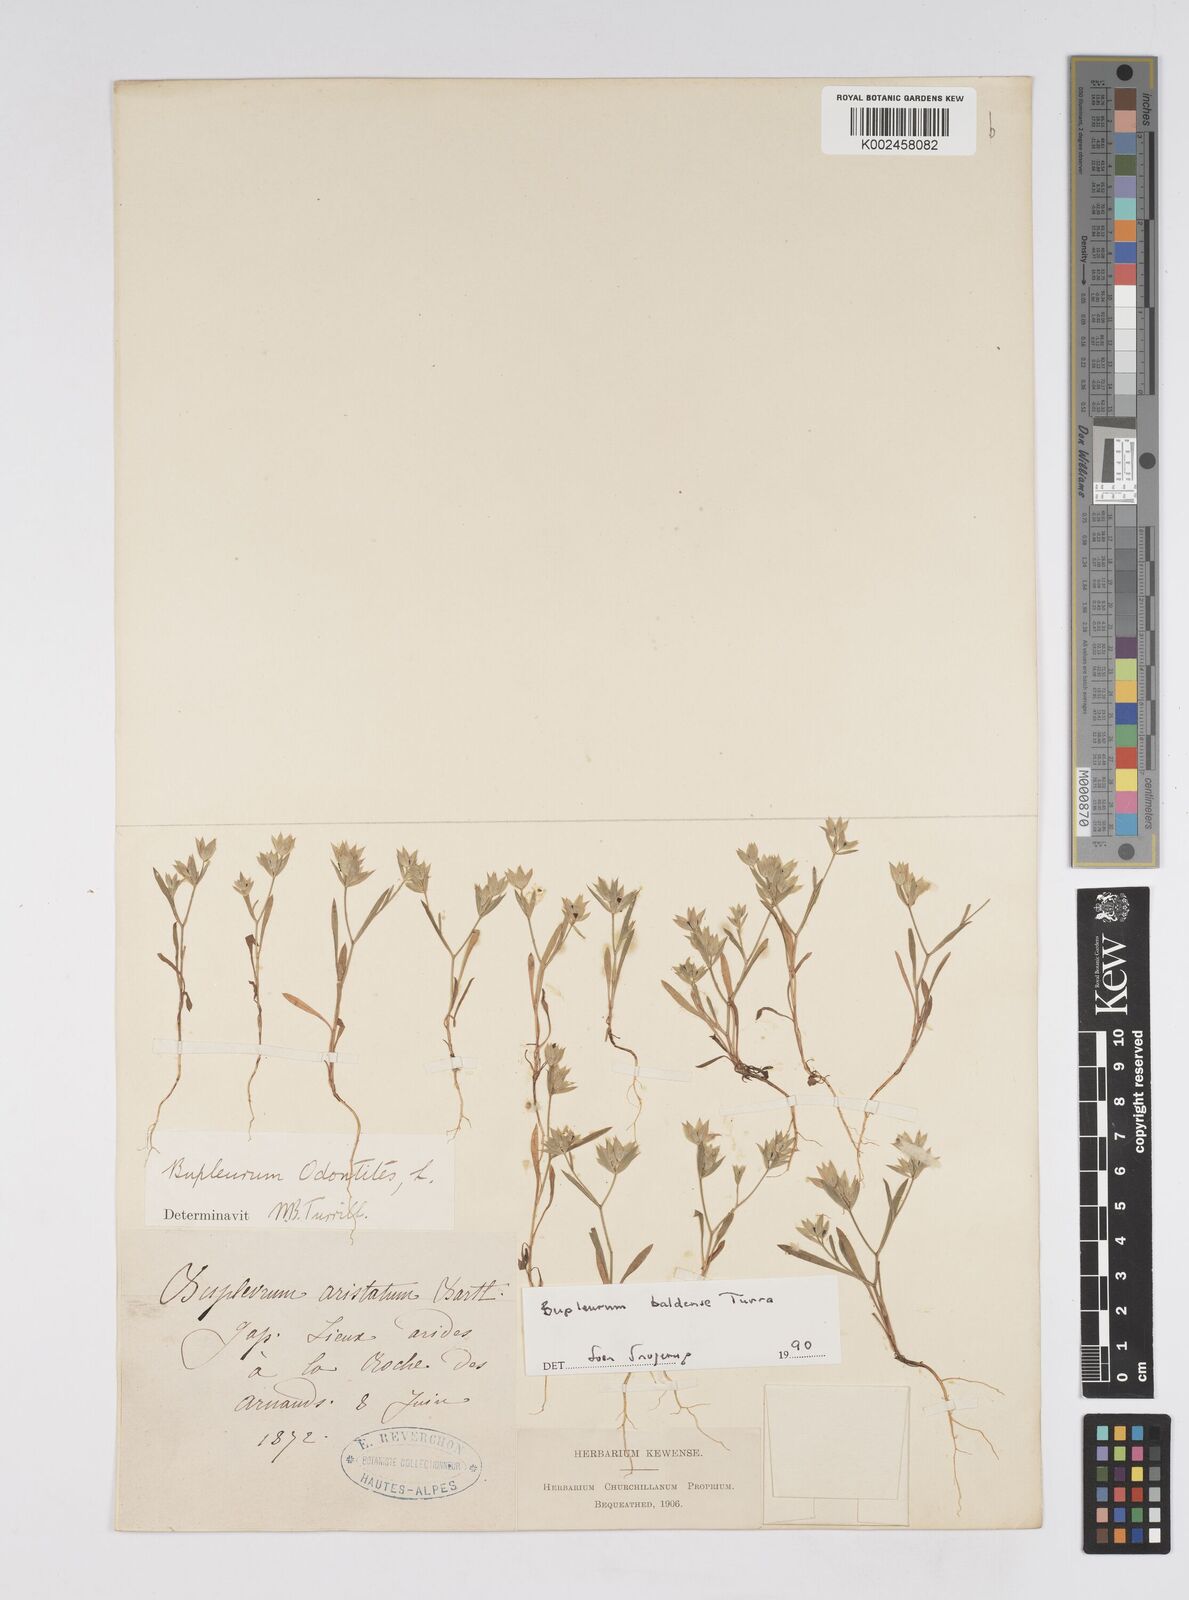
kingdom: Plantae
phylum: Tracheophyta
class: Magnoliopsida
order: Apiales
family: Apiaceae
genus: Bupleurum
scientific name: Bupleurum baldense
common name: Small hare's-ear
